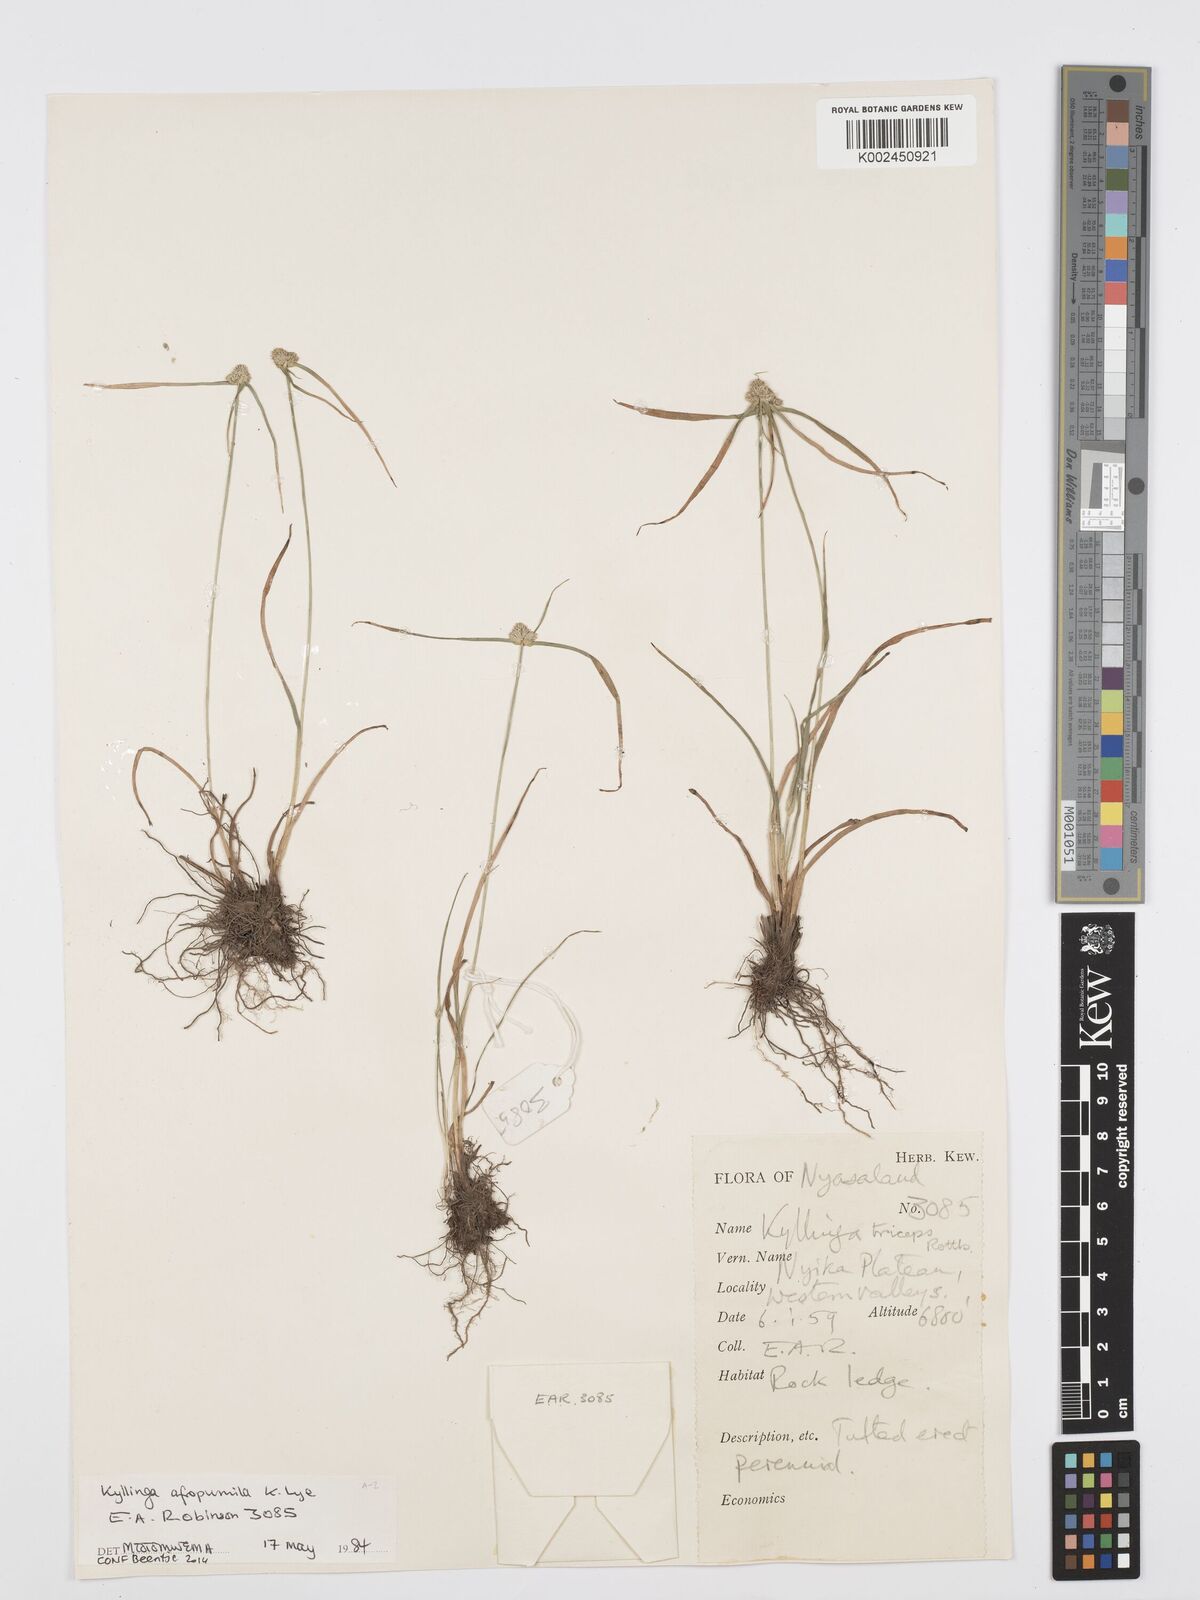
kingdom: Plantae
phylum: Tracheophyta
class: Liliopsida
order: Poales
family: Cyperaceae
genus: Cyperus
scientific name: Cyperus afropumilus
